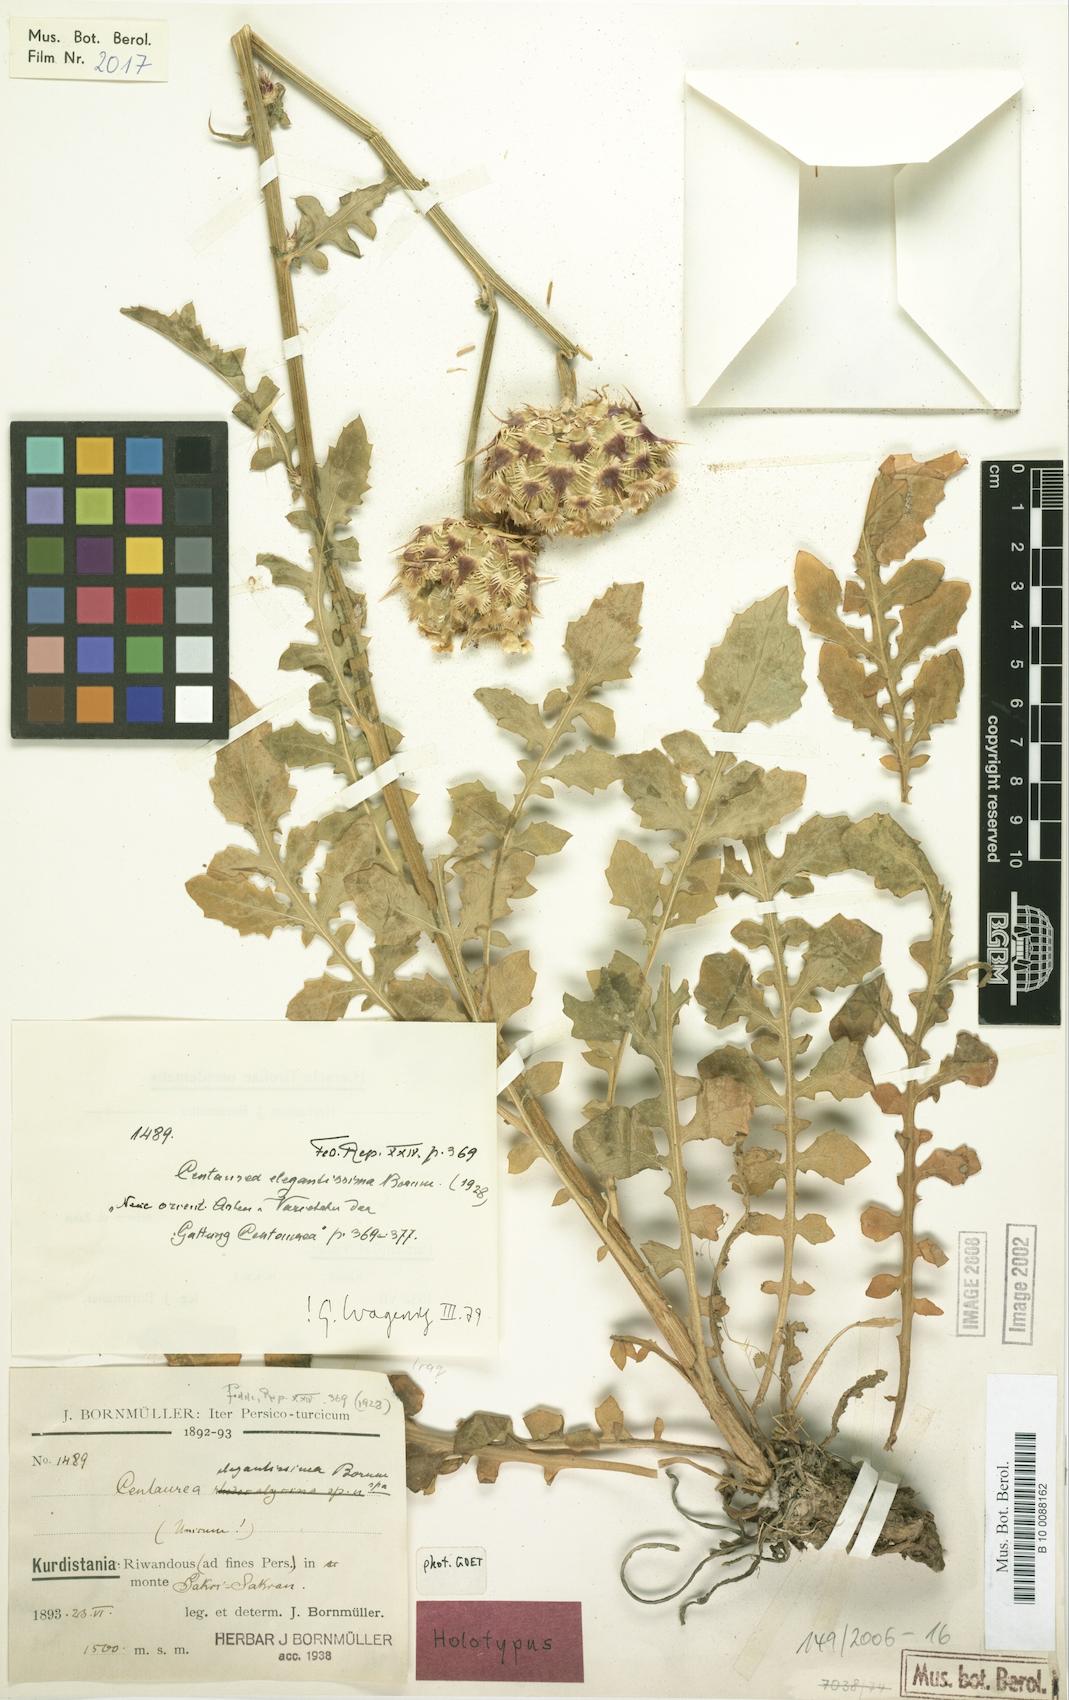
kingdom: Plantae
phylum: Tracheophyta
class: Magnoliopsida
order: Asterales
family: Asteraceae
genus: Centaurea
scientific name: Centaurea elegantissima
